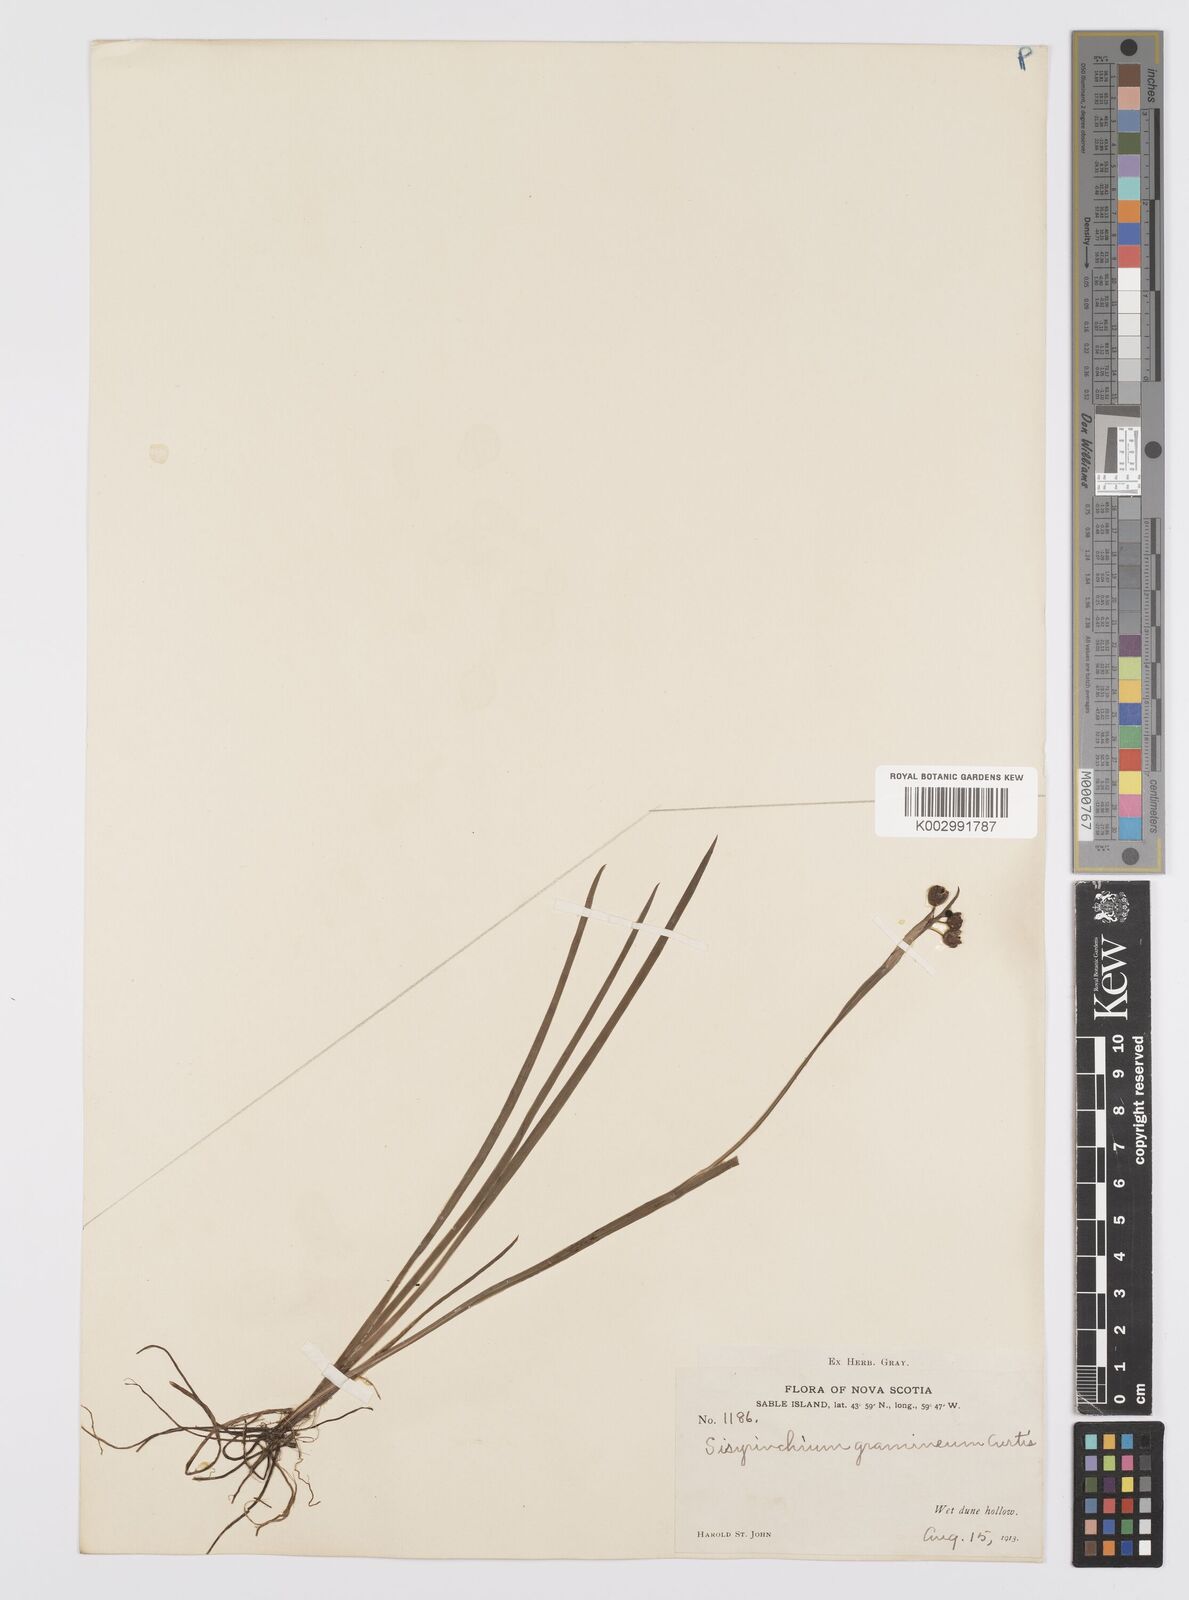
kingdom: Plantae
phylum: Tracheophyta
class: Liliopsida
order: Asparagales
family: Iridaceae
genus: Sisyrinchium
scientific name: Sisyrinchium bermudiana
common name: Blue-eyed-grass
